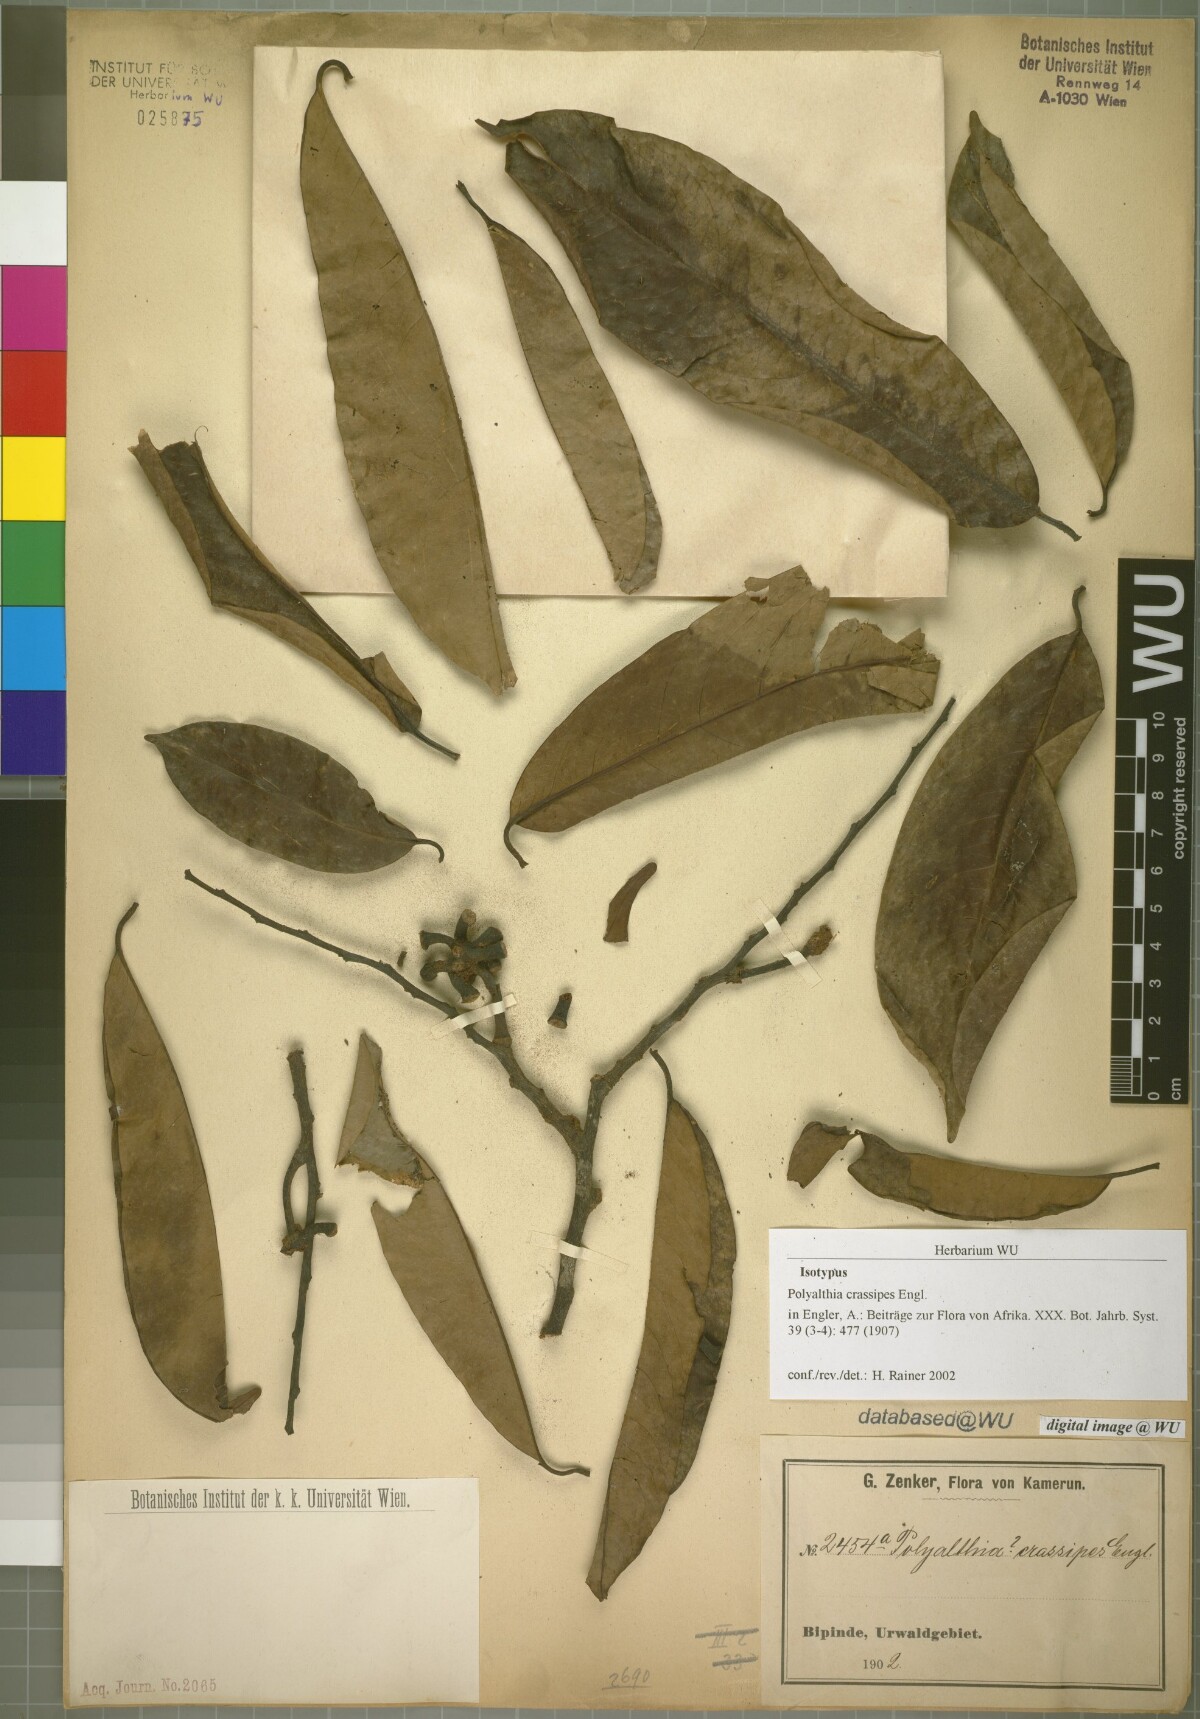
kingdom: Plantae
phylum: Tracheophyta
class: Magnoliopsida
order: Magnoliales
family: Annonaceae
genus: Cleistopholis
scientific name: Cleistopholis staudtii
